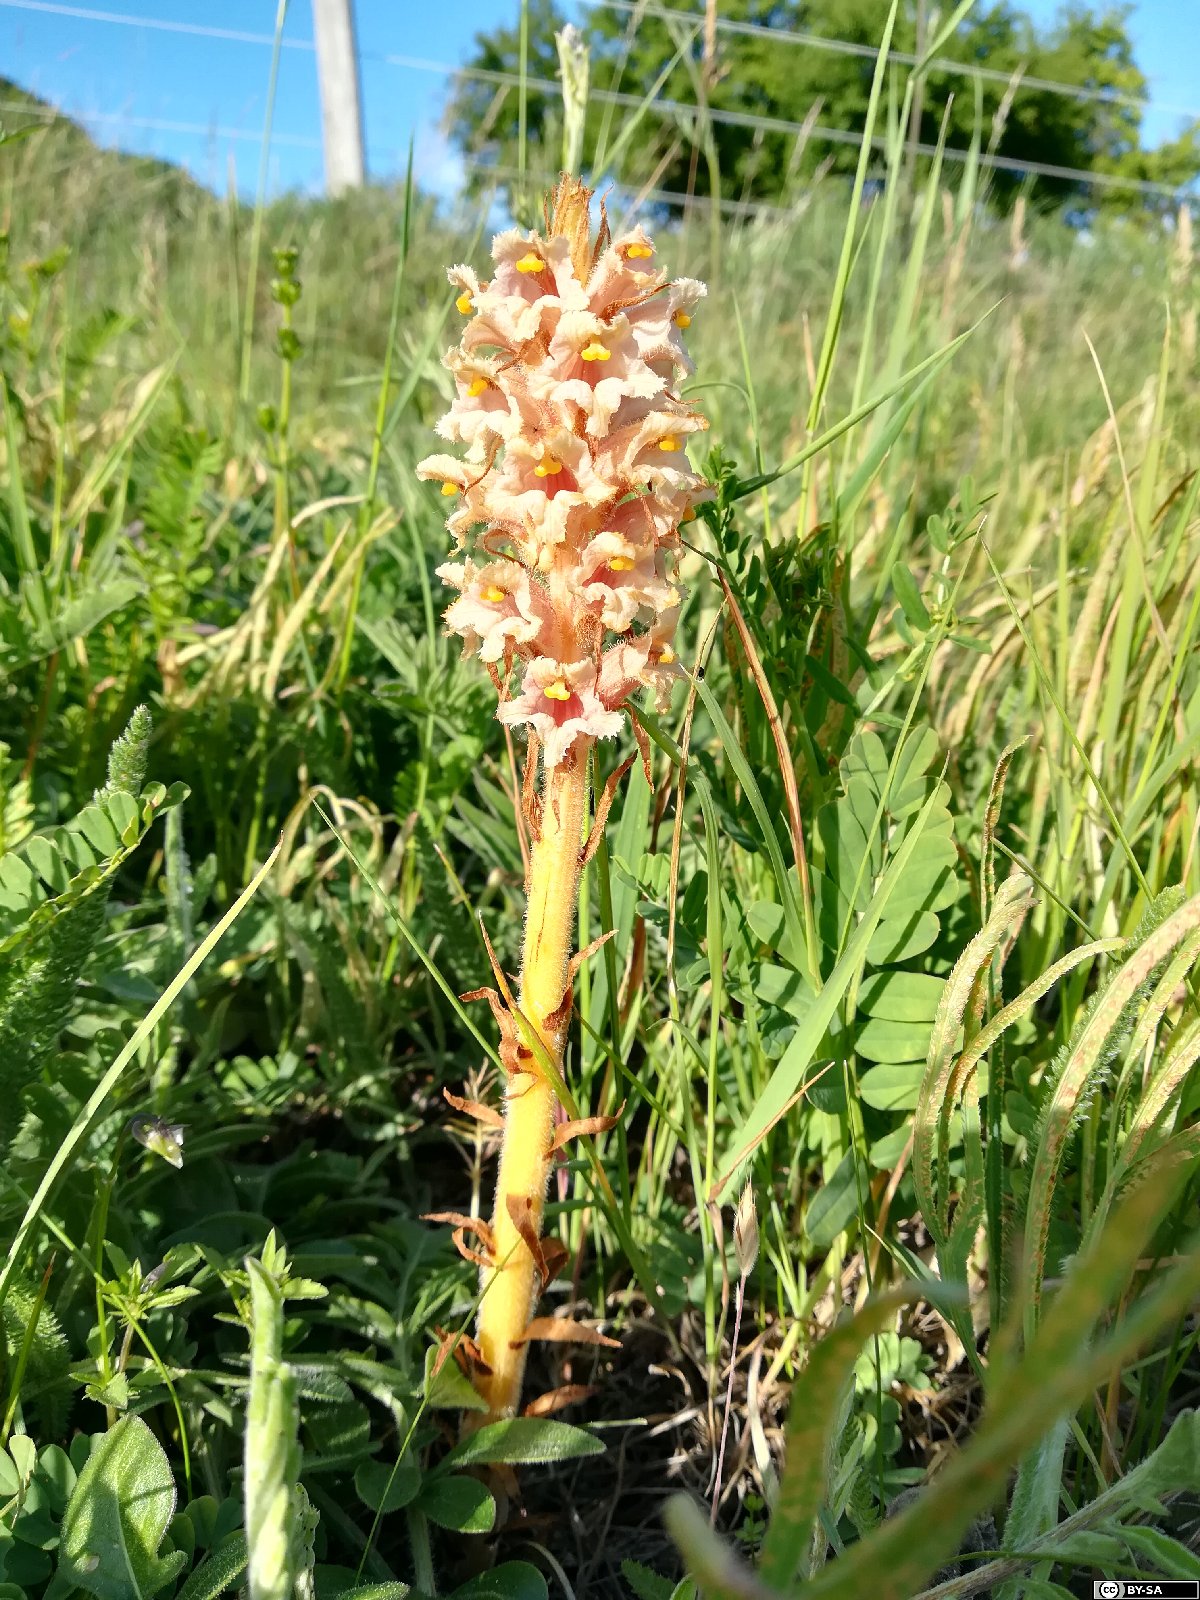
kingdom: Plantae
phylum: Tracheophyta
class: Magnoliopsida
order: Lamiales
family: Orobanchaceae
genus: Orobanche
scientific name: Orobanche elatior
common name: Knapweed broomrape
